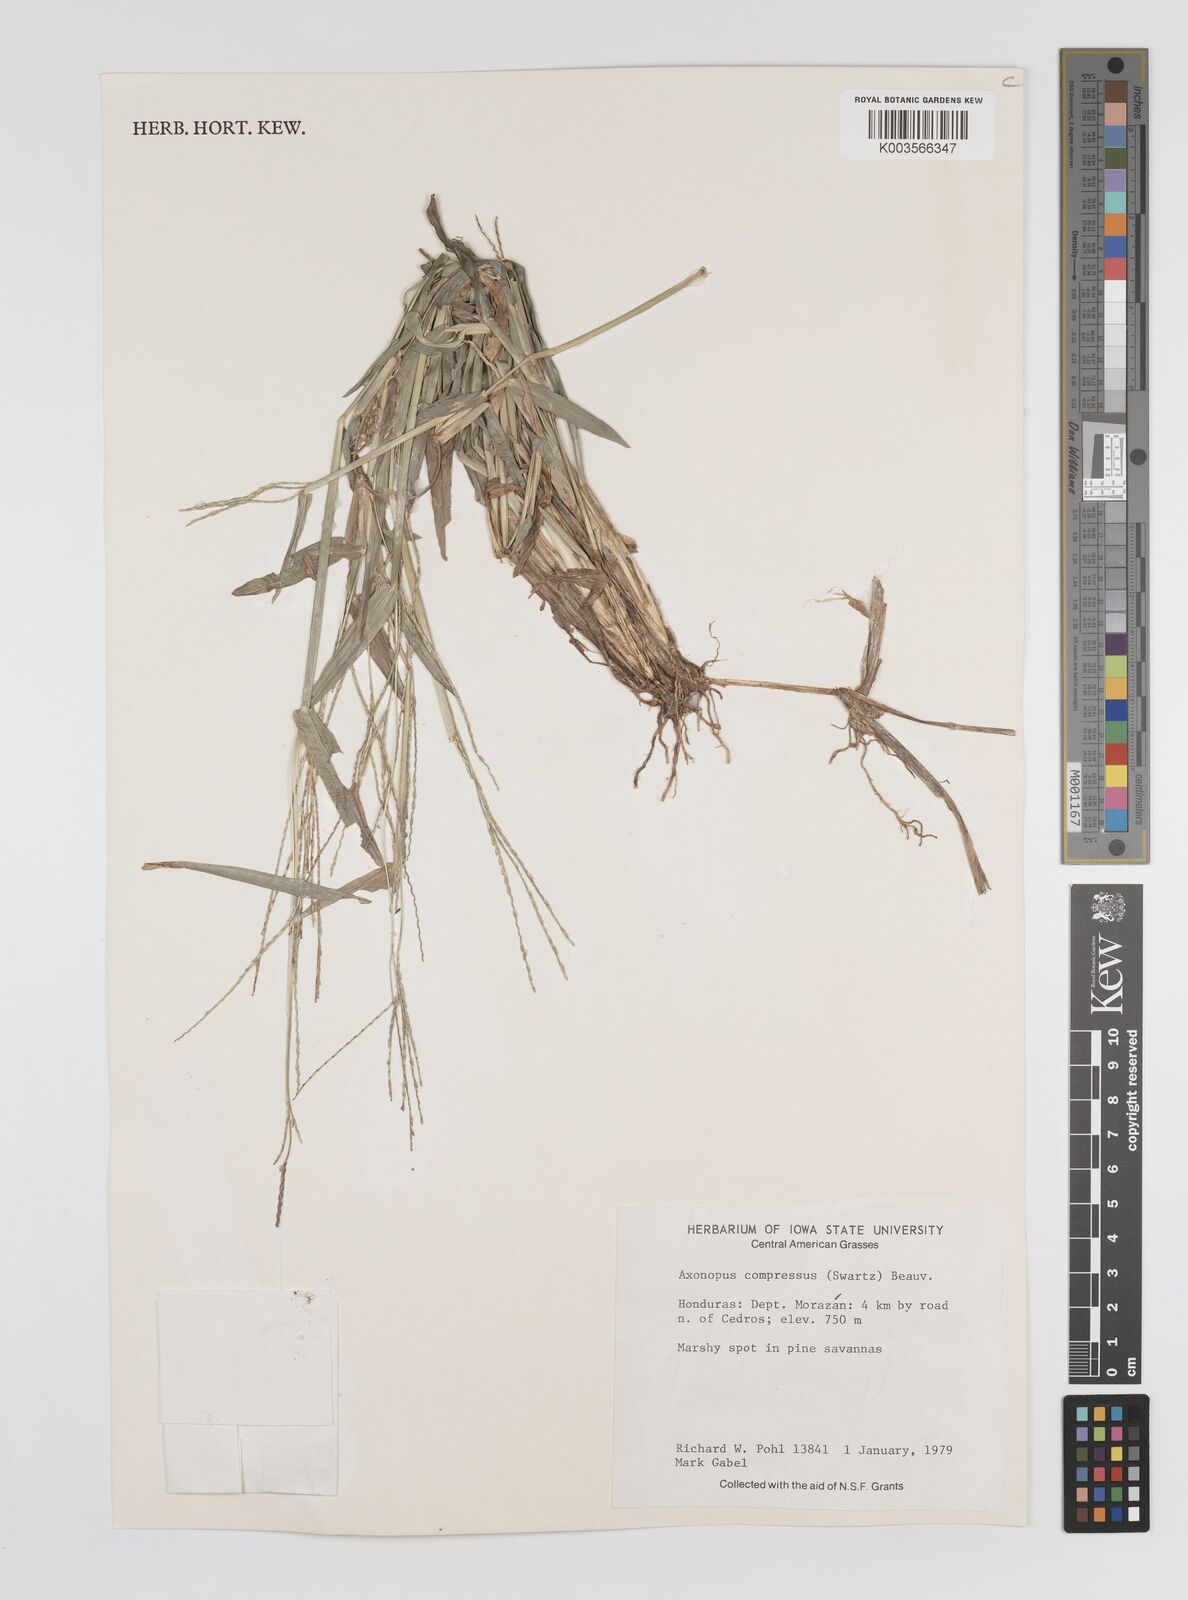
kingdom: Plantae
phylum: Tracheophyta
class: Liliopsida
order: Poales
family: Poaceae
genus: Axonopus
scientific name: Axonopus compressus
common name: American carpet grass
